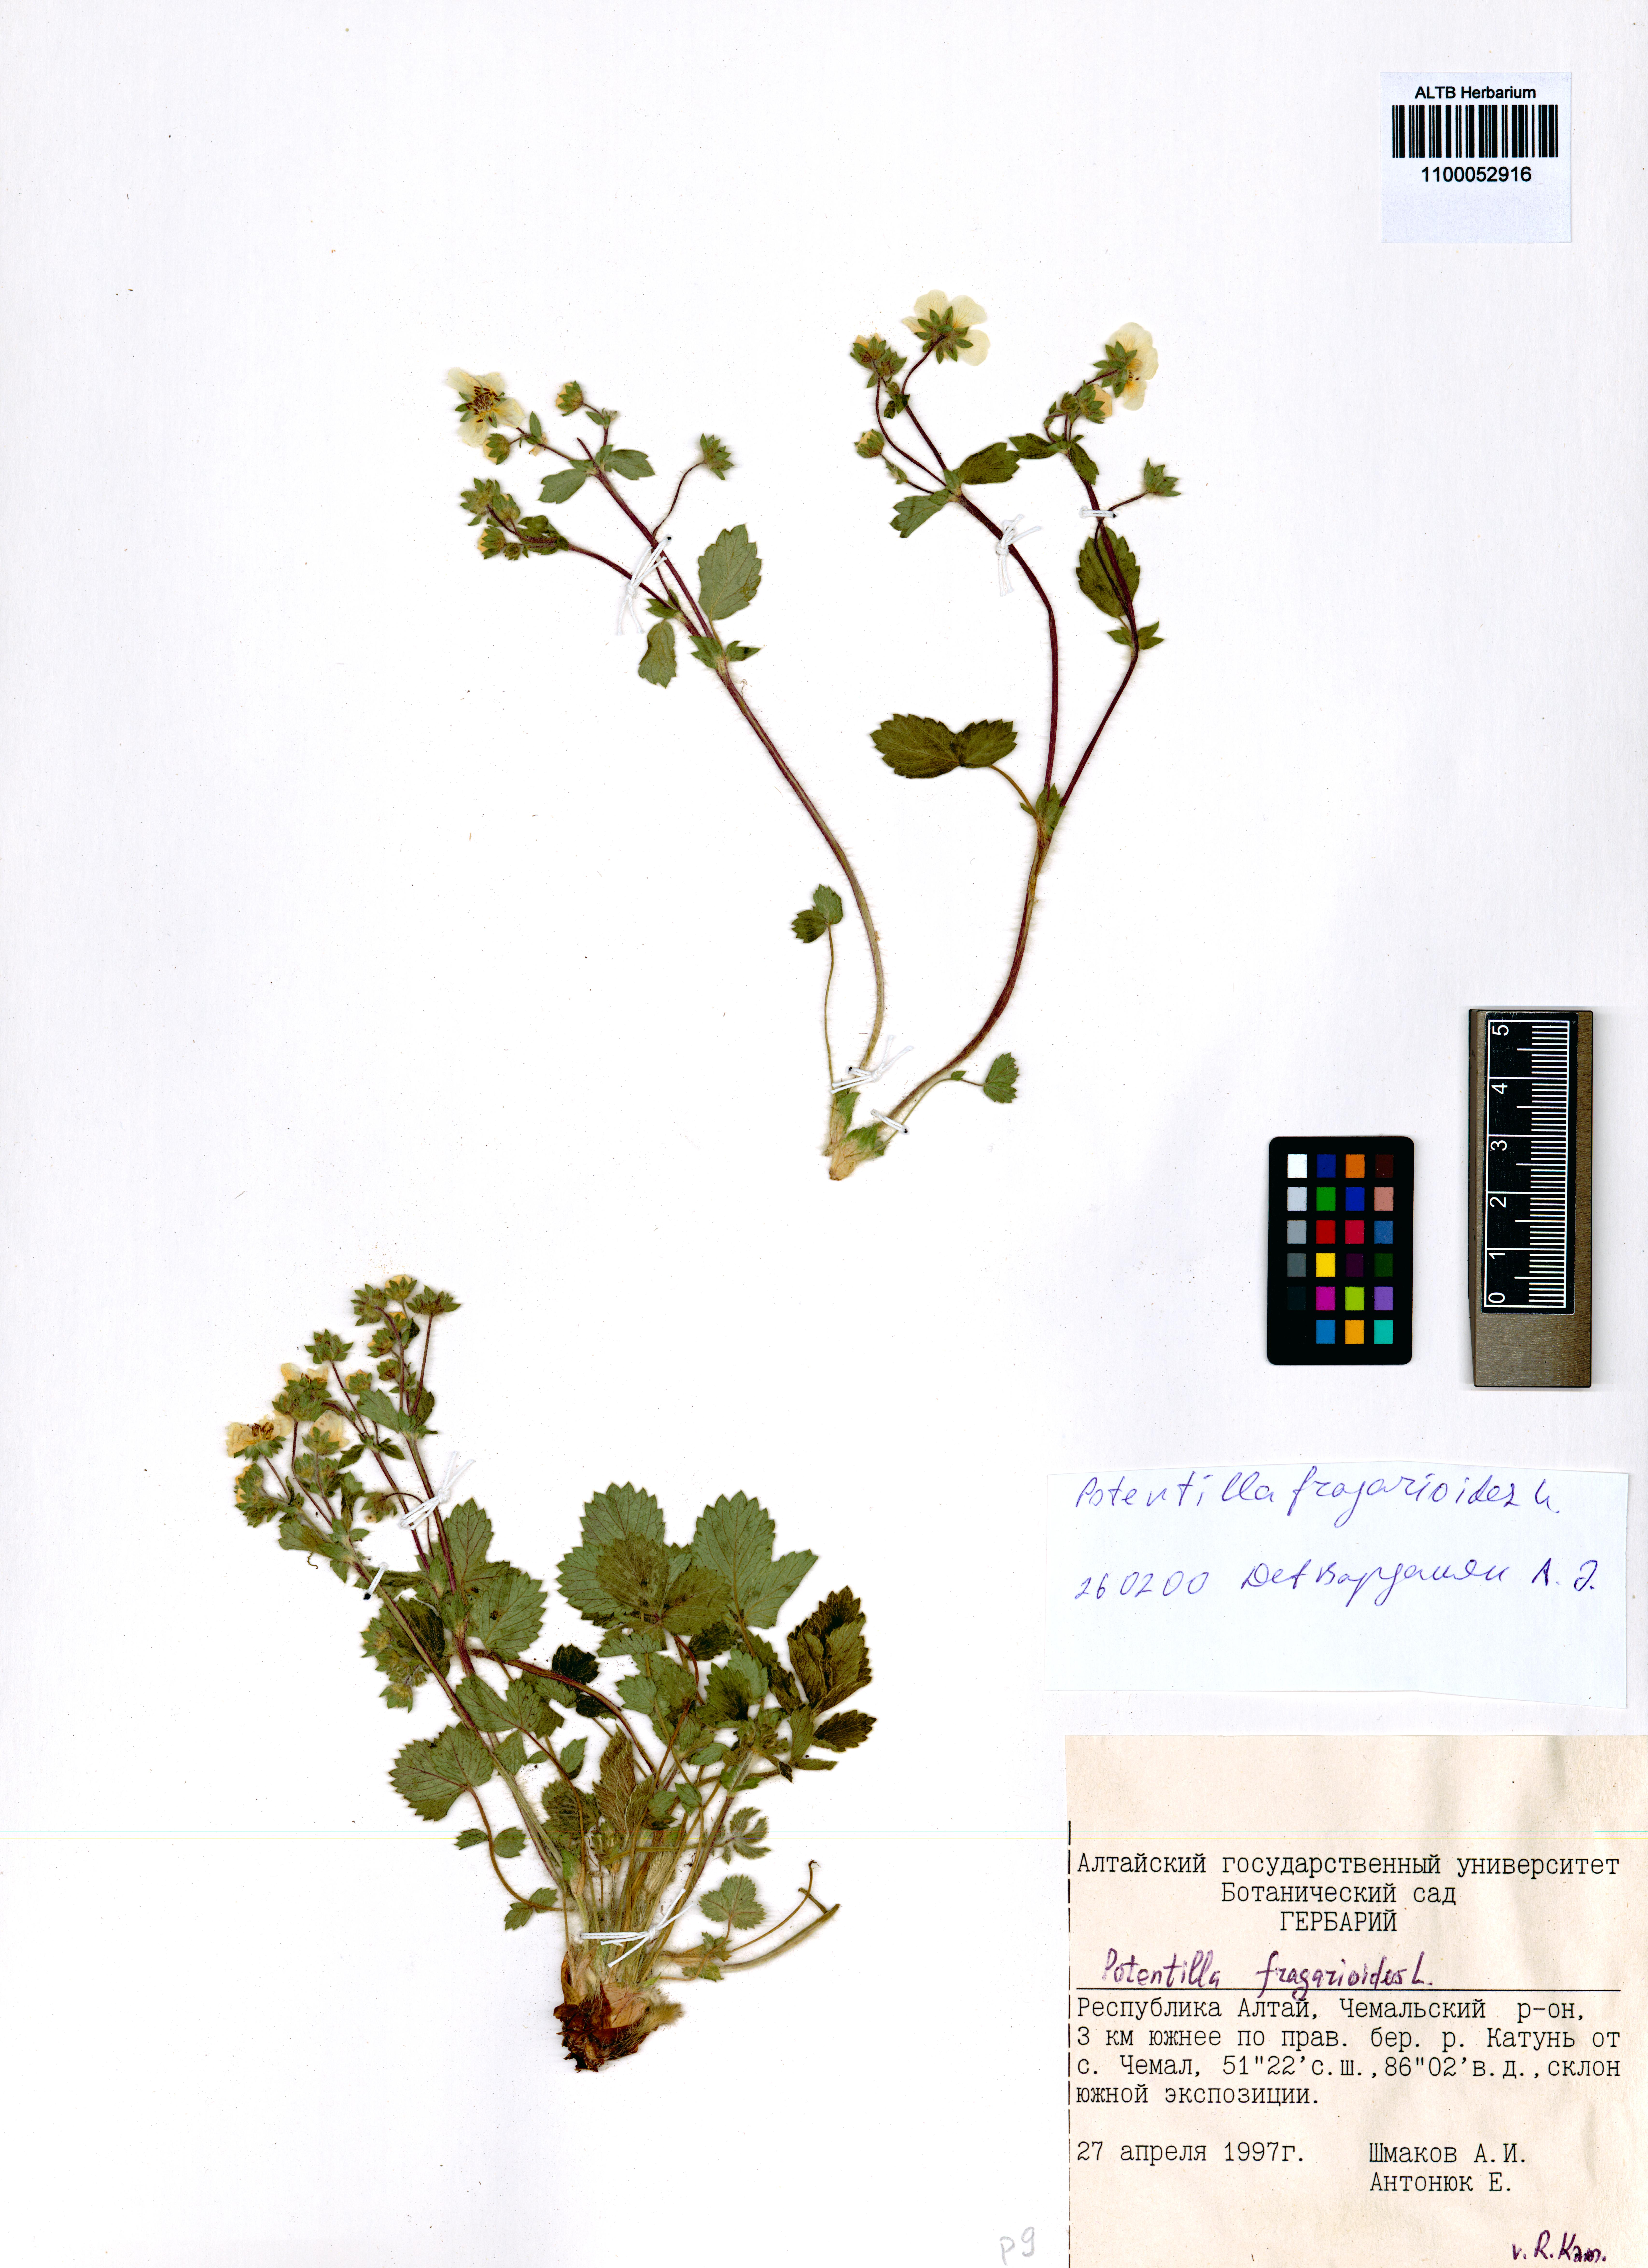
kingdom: Plantae
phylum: Tracheophyta
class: Magnoliopsida
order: Rosales
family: Rosaceae
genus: Potentilla
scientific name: Potentilla fragarioides
